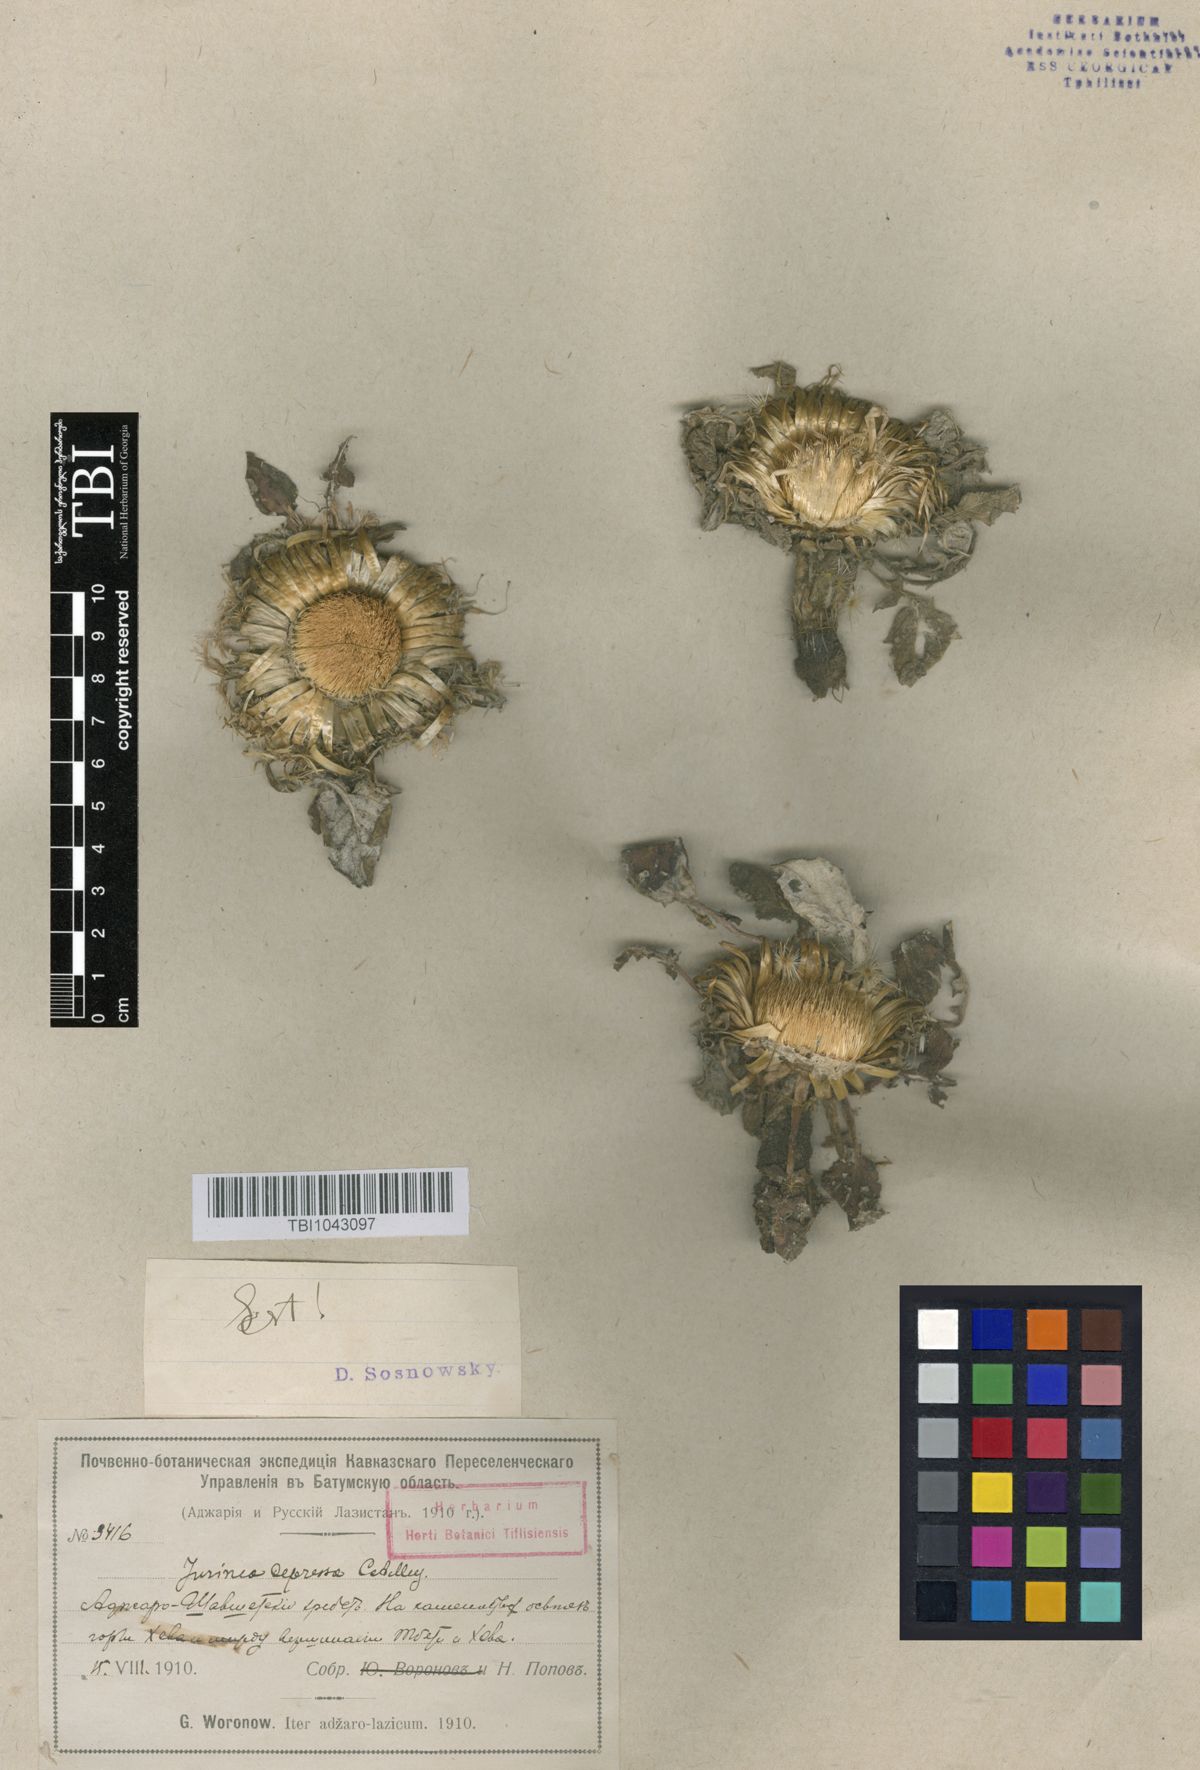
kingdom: Plantae
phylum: Tracheophyta
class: Magnoliopsida
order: Asterales
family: Asteraceae
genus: Jurinea
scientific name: Jurinea moschus
